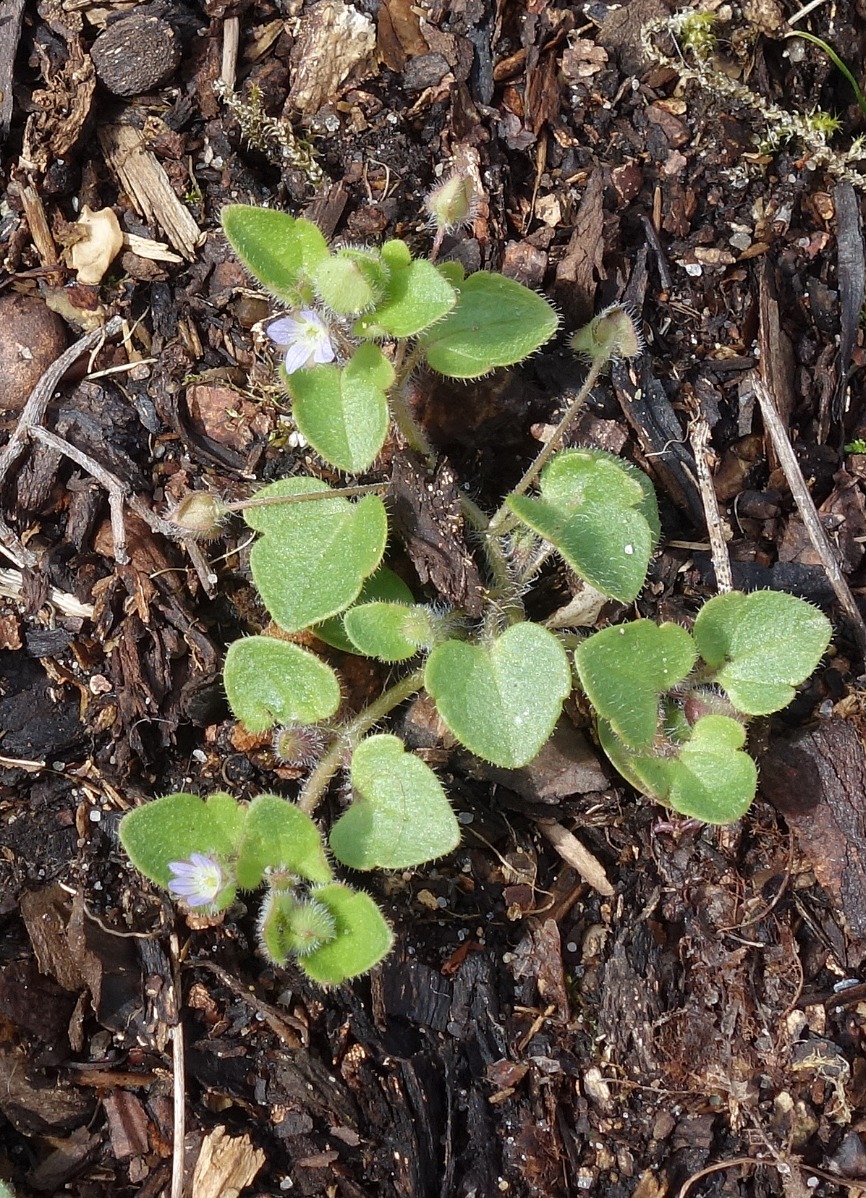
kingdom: Plantae
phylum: Tracheophyta
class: Magnoliopsida
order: Lamiales
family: Plantaginaceae
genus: Veronica
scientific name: Veronica sublobata
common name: Krat-ærenpris
